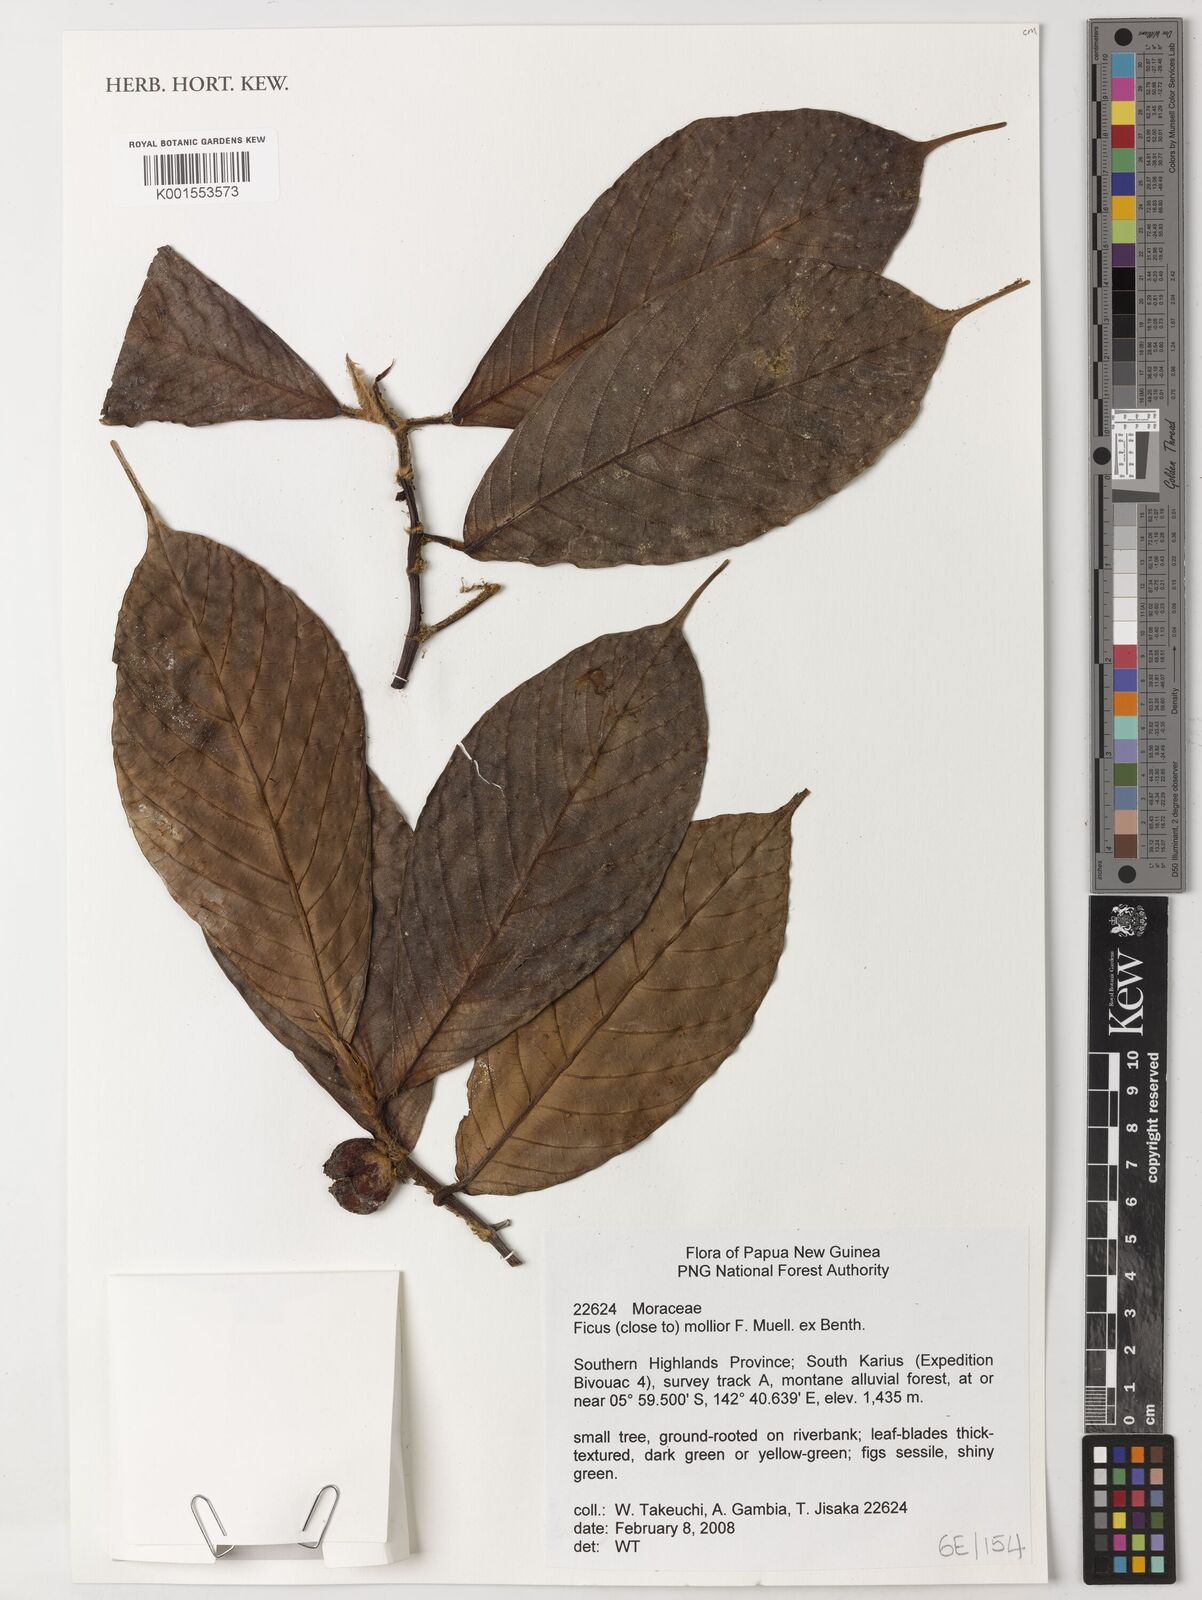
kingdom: Plantae
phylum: Tracheophyta
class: Magnoliopsida
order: Rosales
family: Moraceae
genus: Ficus
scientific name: Ficus mollior
